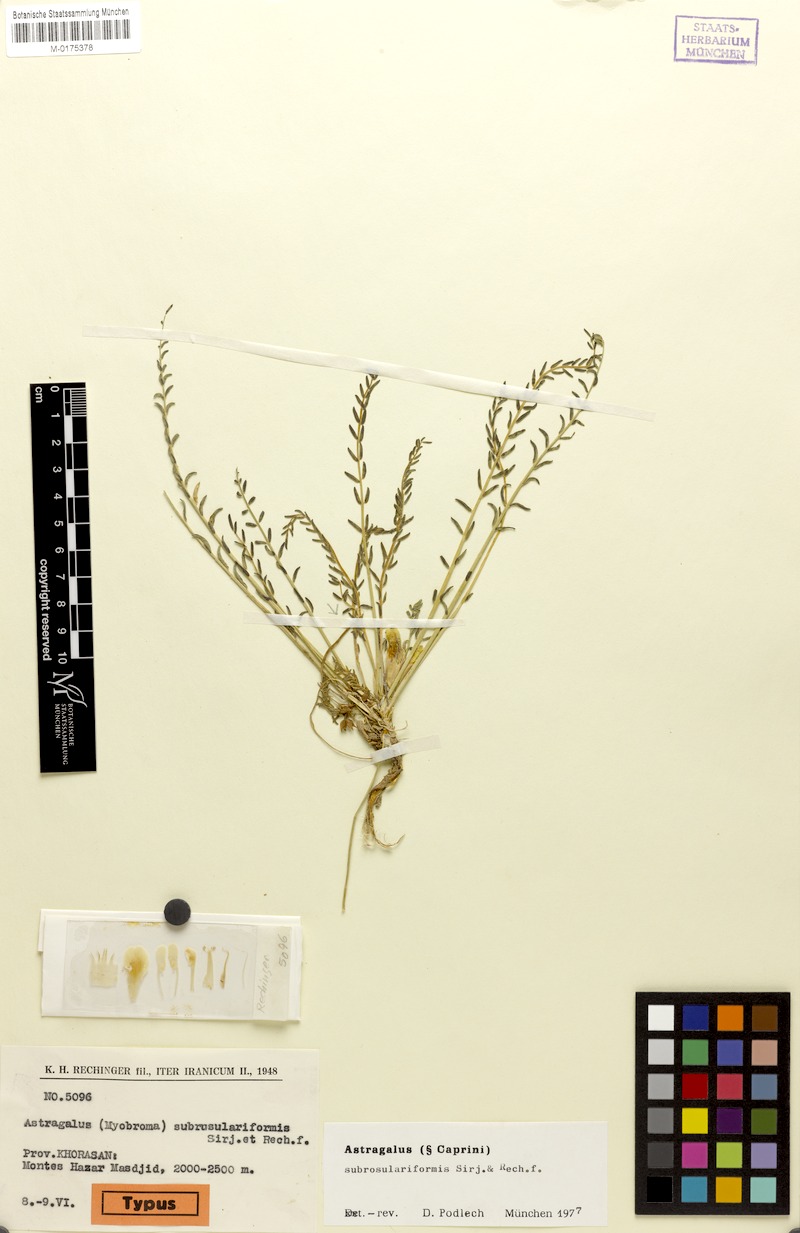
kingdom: Plantae
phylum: Tracheophyta
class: Magnoliopsida
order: Fabales
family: Fabaceae
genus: Astragalus
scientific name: Astragalus subrosulariformis
